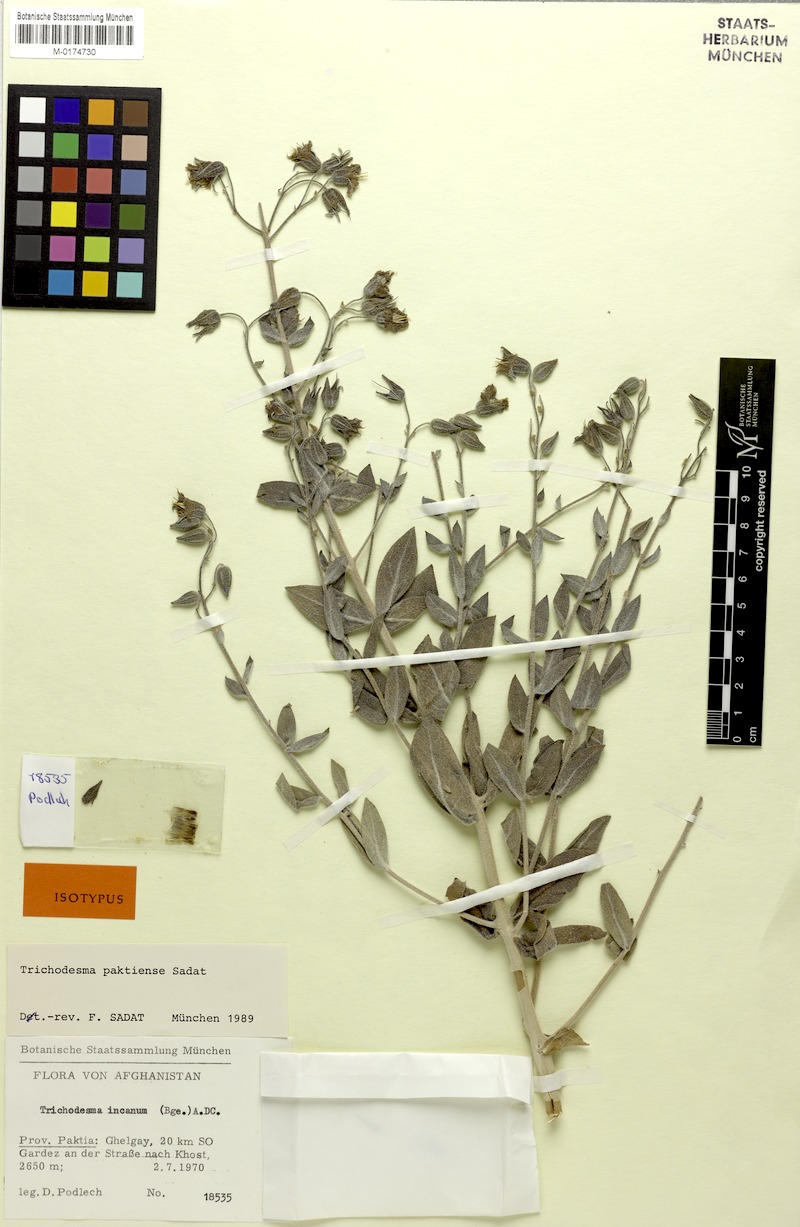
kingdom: Plantae
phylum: Tracheophyta
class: Magnoliopsida
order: Boraginales
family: Boraginaceae
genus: Trichodesma
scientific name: Trichodesma paktiense
